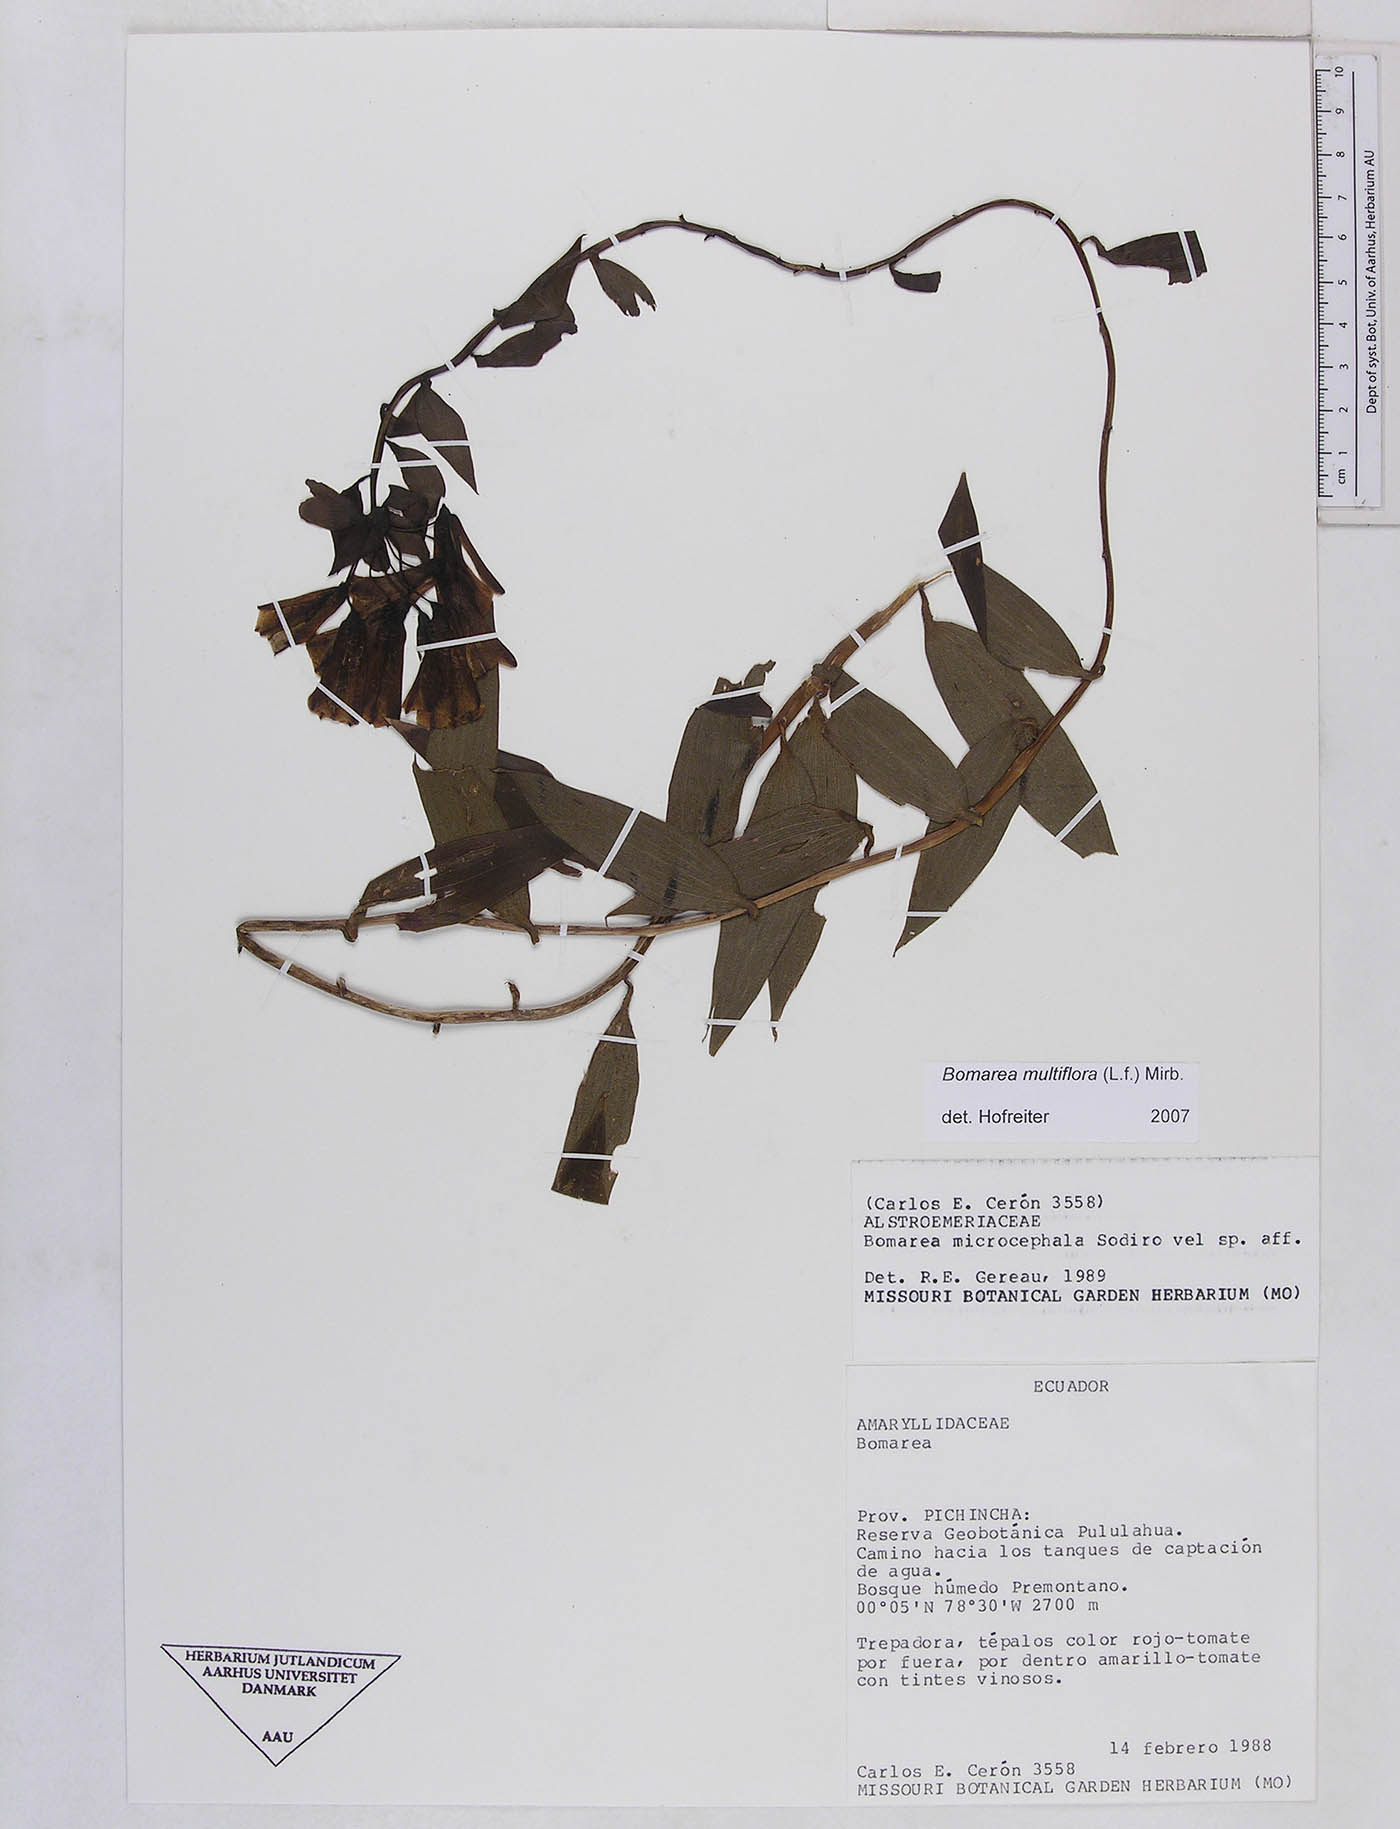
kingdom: Plantae
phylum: Tracheophyta
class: Liliopsida
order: Liliales
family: Alstroemeriaceae
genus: Bomarea
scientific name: Bomarea multiflora
